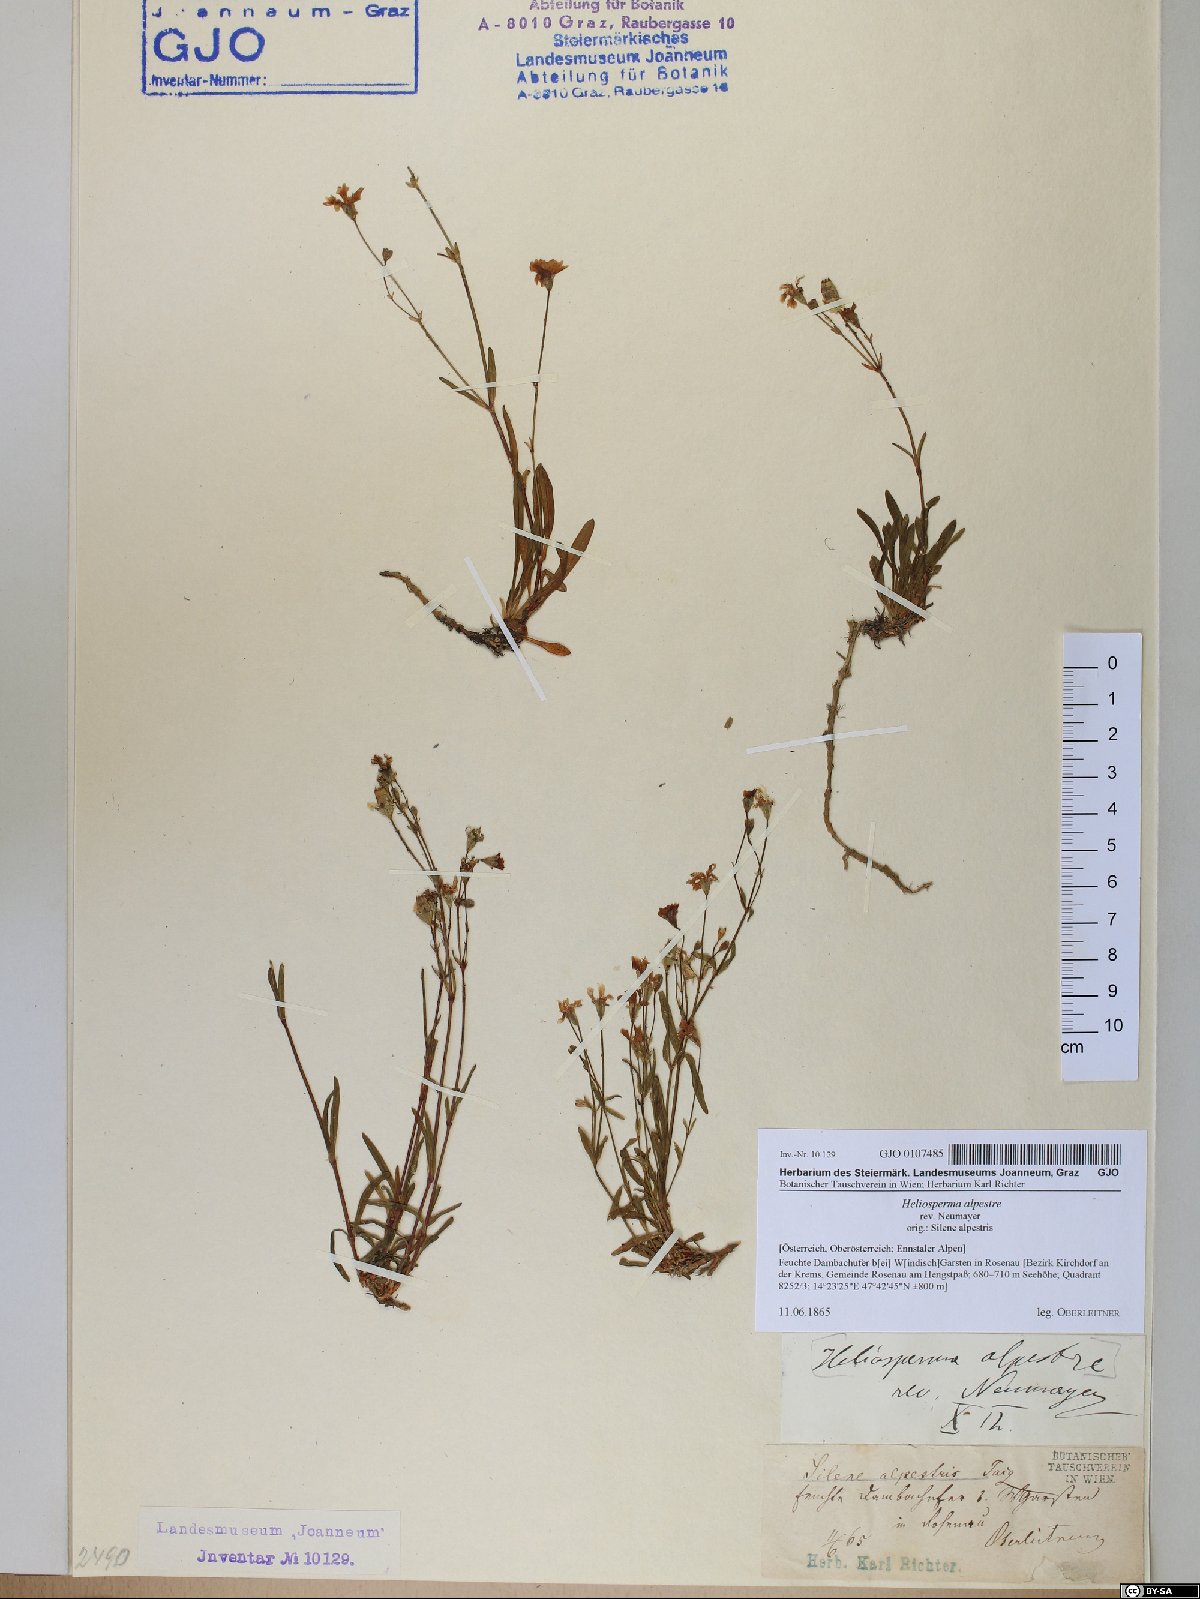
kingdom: Plantae
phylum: Tracheophyta
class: Magnoliopsida
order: Caryophyllales
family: Caryophyllaceae
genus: Heliosperma
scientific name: Heliosperma alpestre
